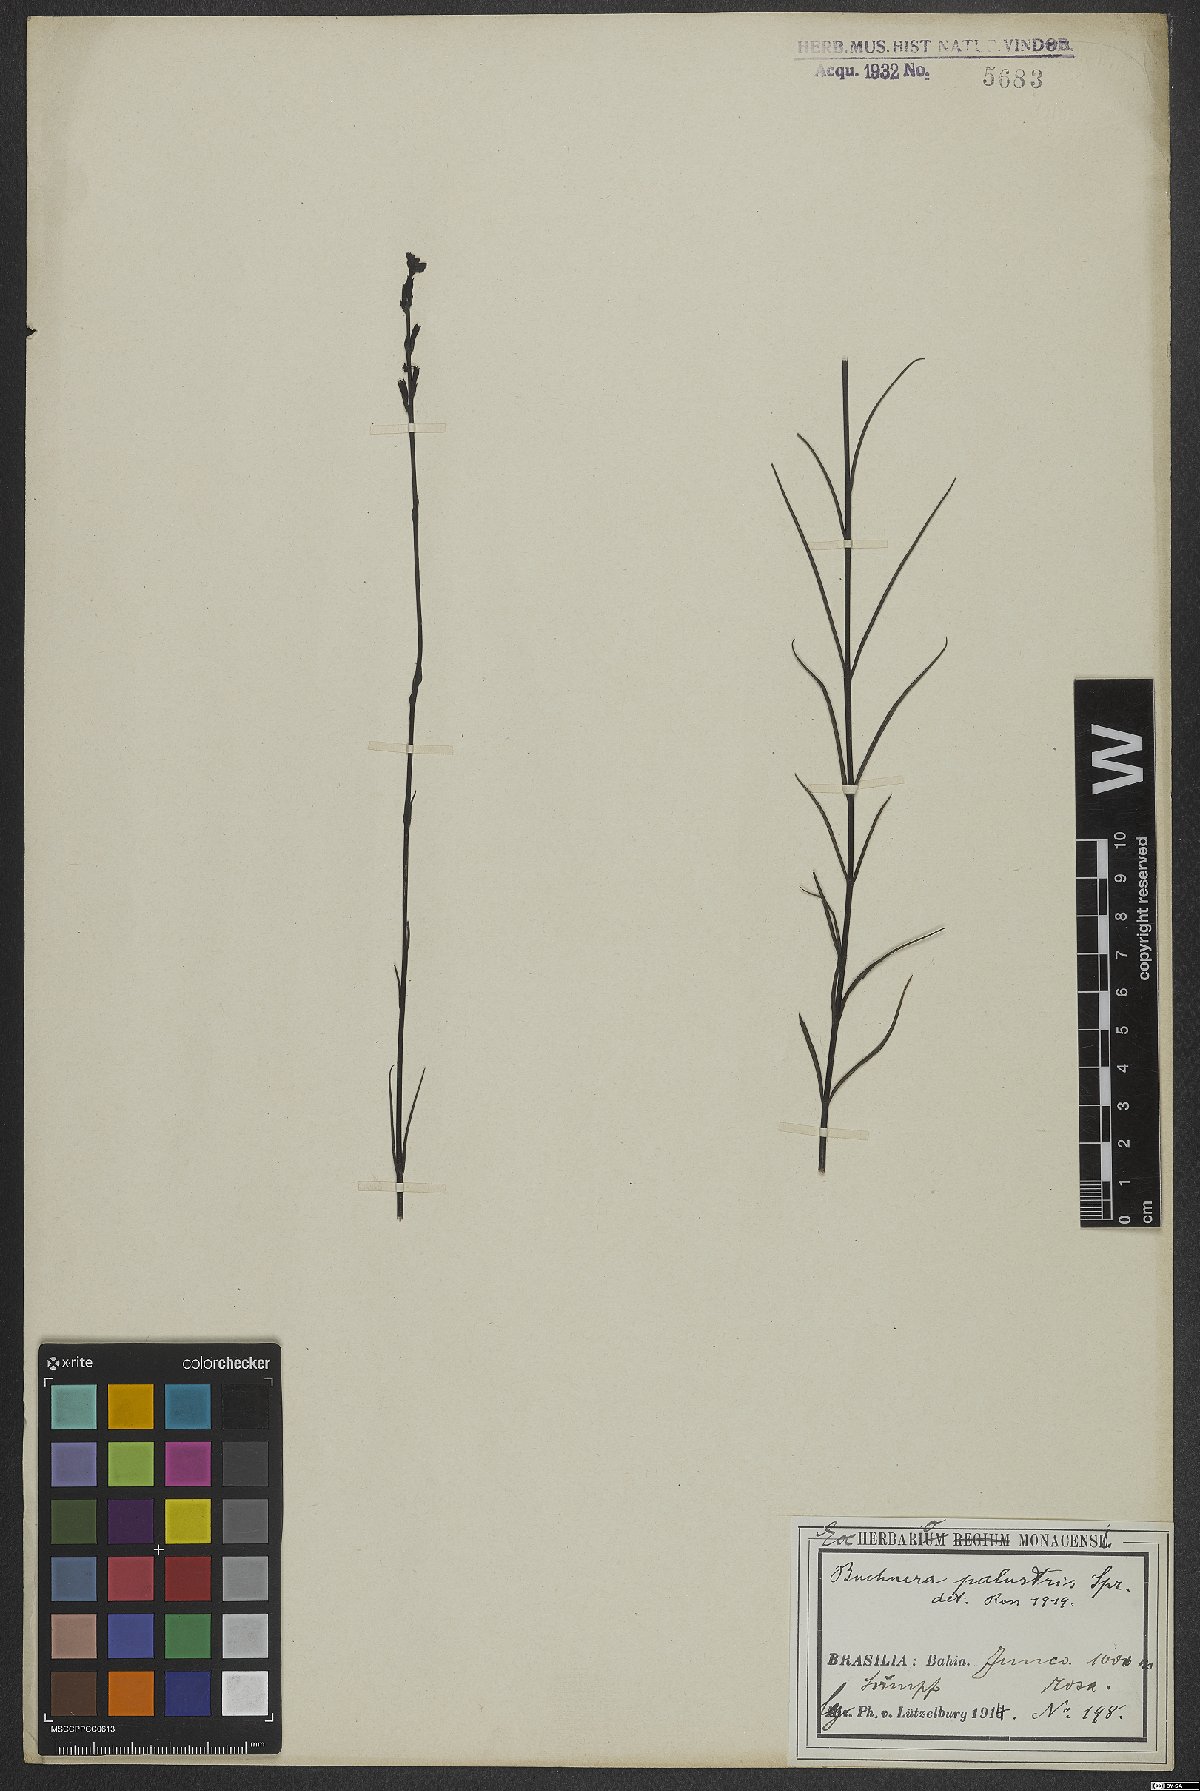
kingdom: Plantae
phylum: Tracheophyta
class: Magnoliopsida
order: Lamiales
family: Orobanchaceae
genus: Buchnera
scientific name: Buchnera palustris
